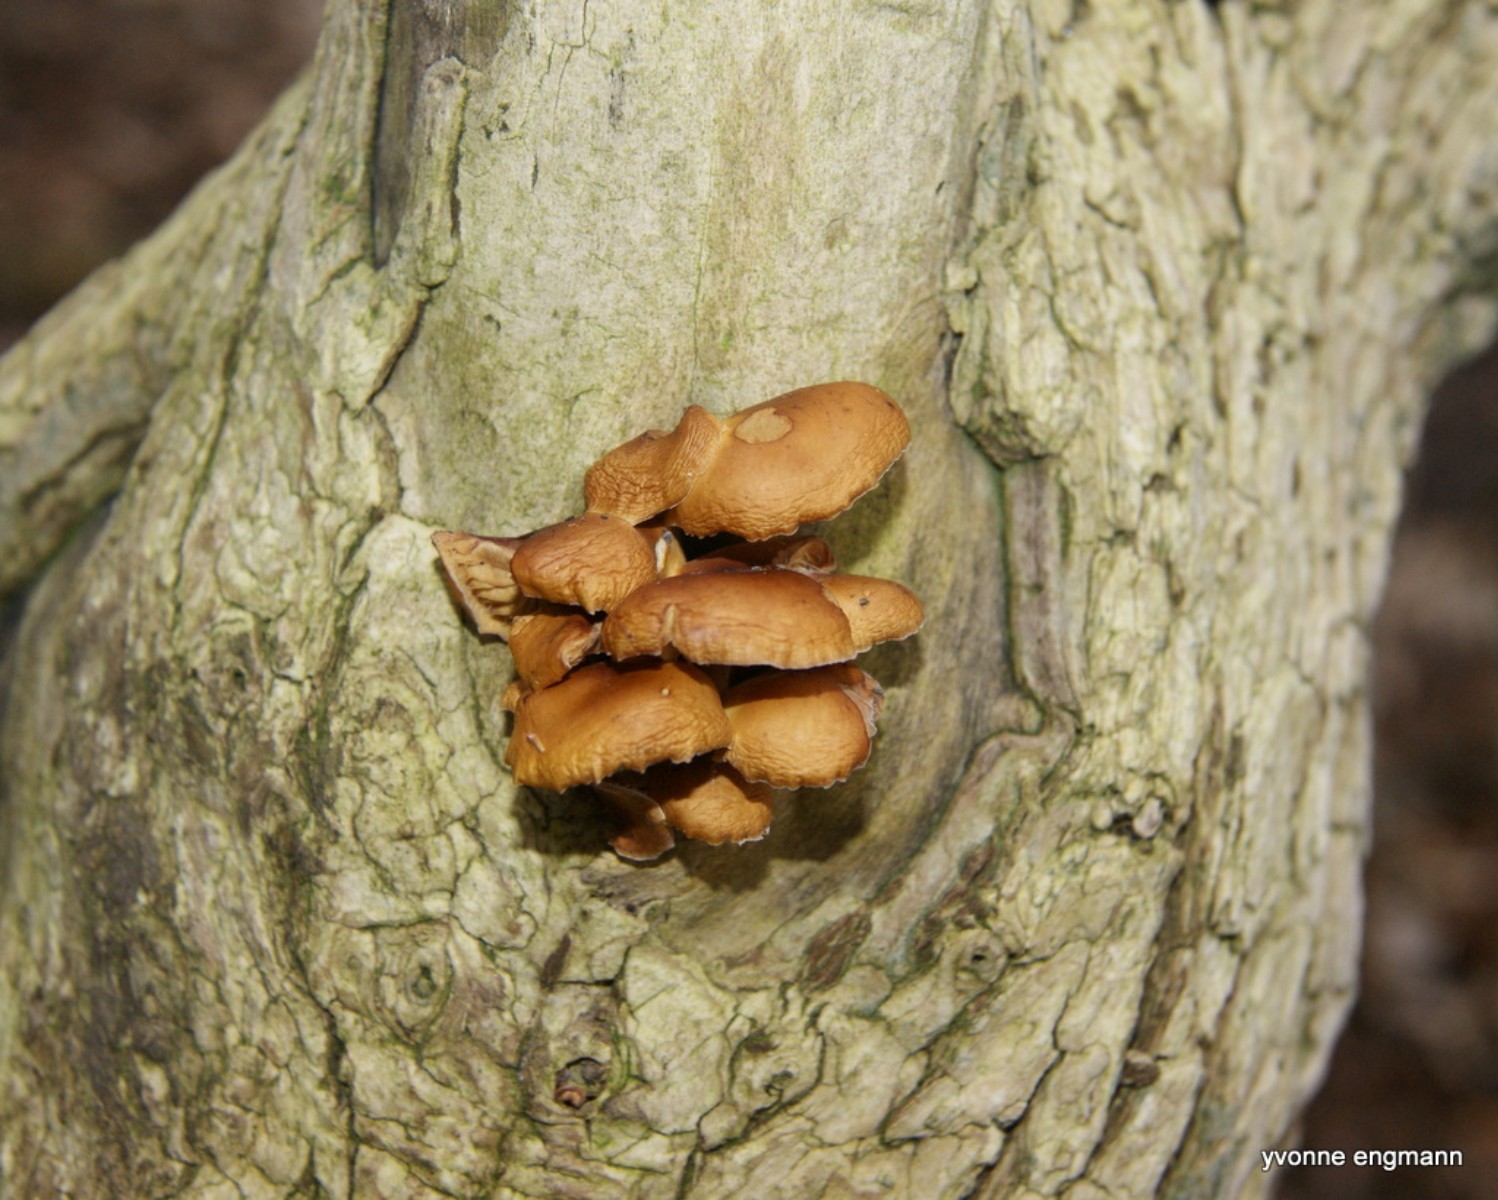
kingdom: Fungi
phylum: Basidiomycota
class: Agaricomycetes
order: Agaricales
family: Physalacriaceae
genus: Flammulina
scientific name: Flammulina velutipes
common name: gul fløjlsfod
